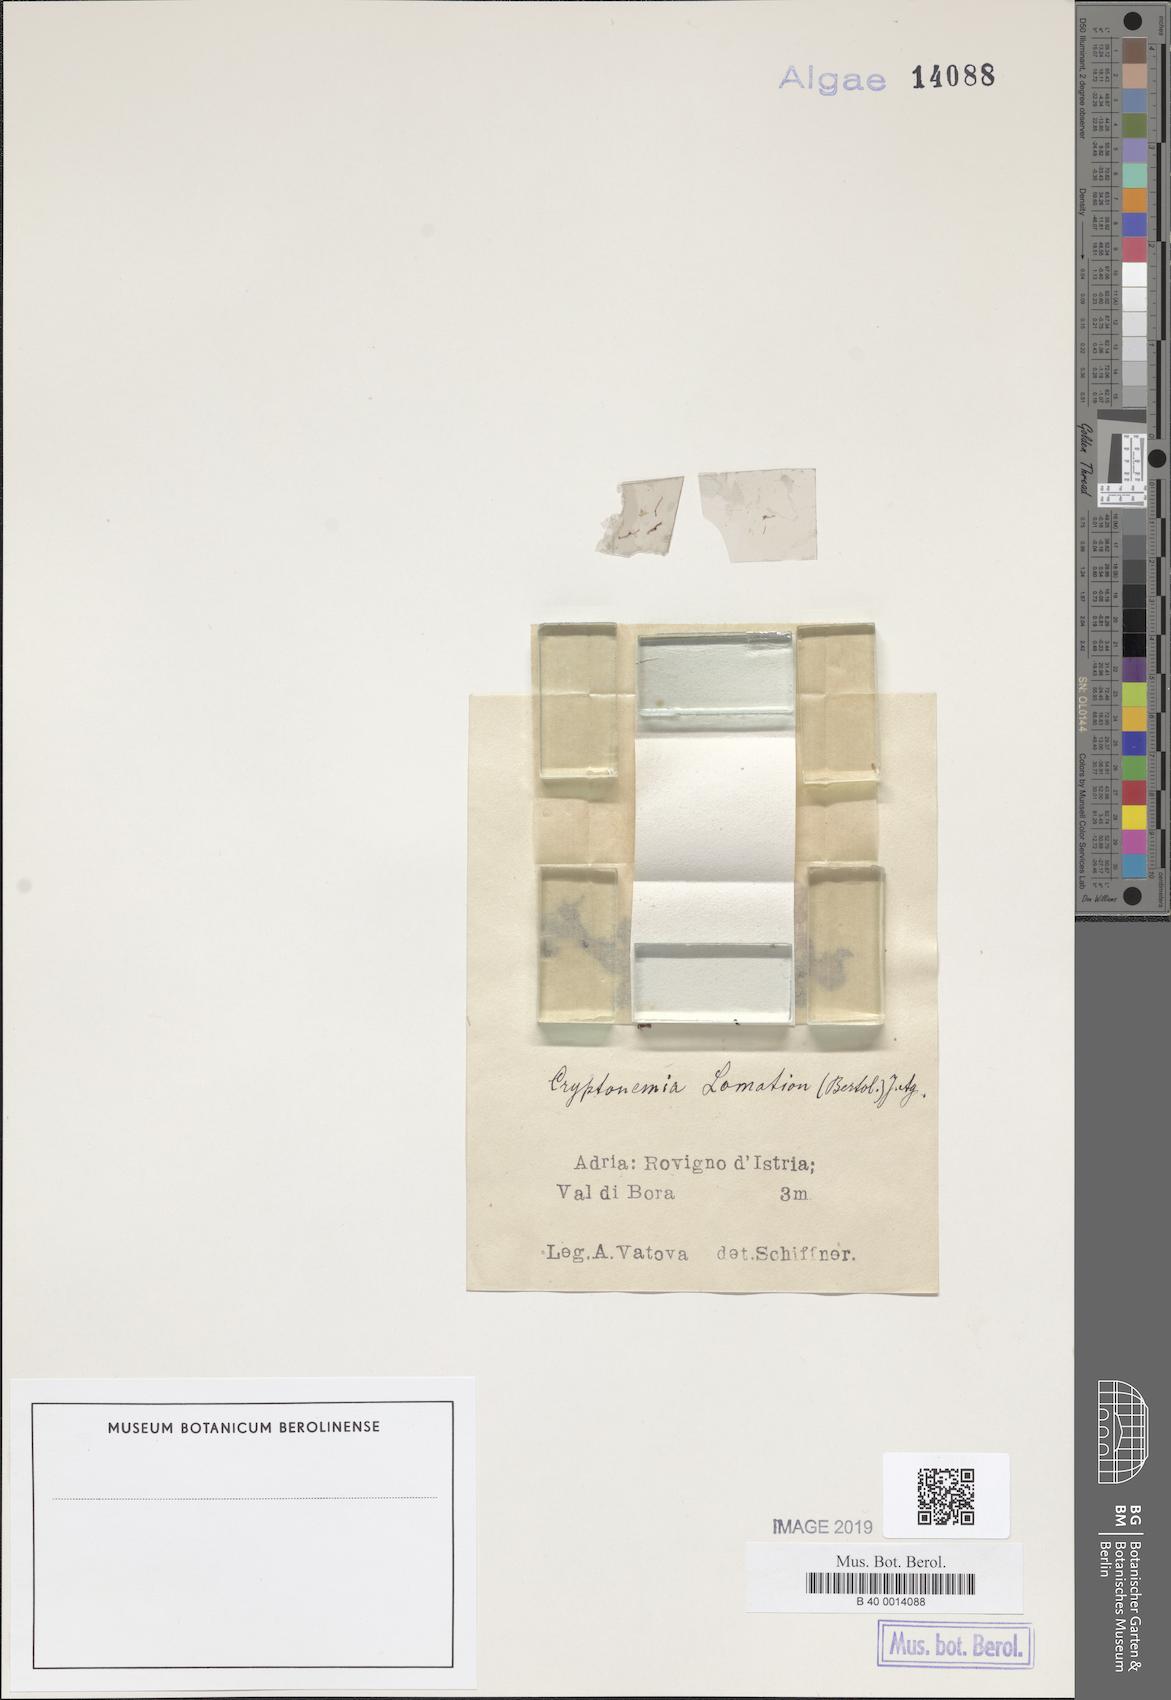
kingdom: Plantae
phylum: Rhodophyta
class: Florideophyceae
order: Halymeniales
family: Halymeniaceae
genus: Cryptonemia
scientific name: Cryptonemia lomation
